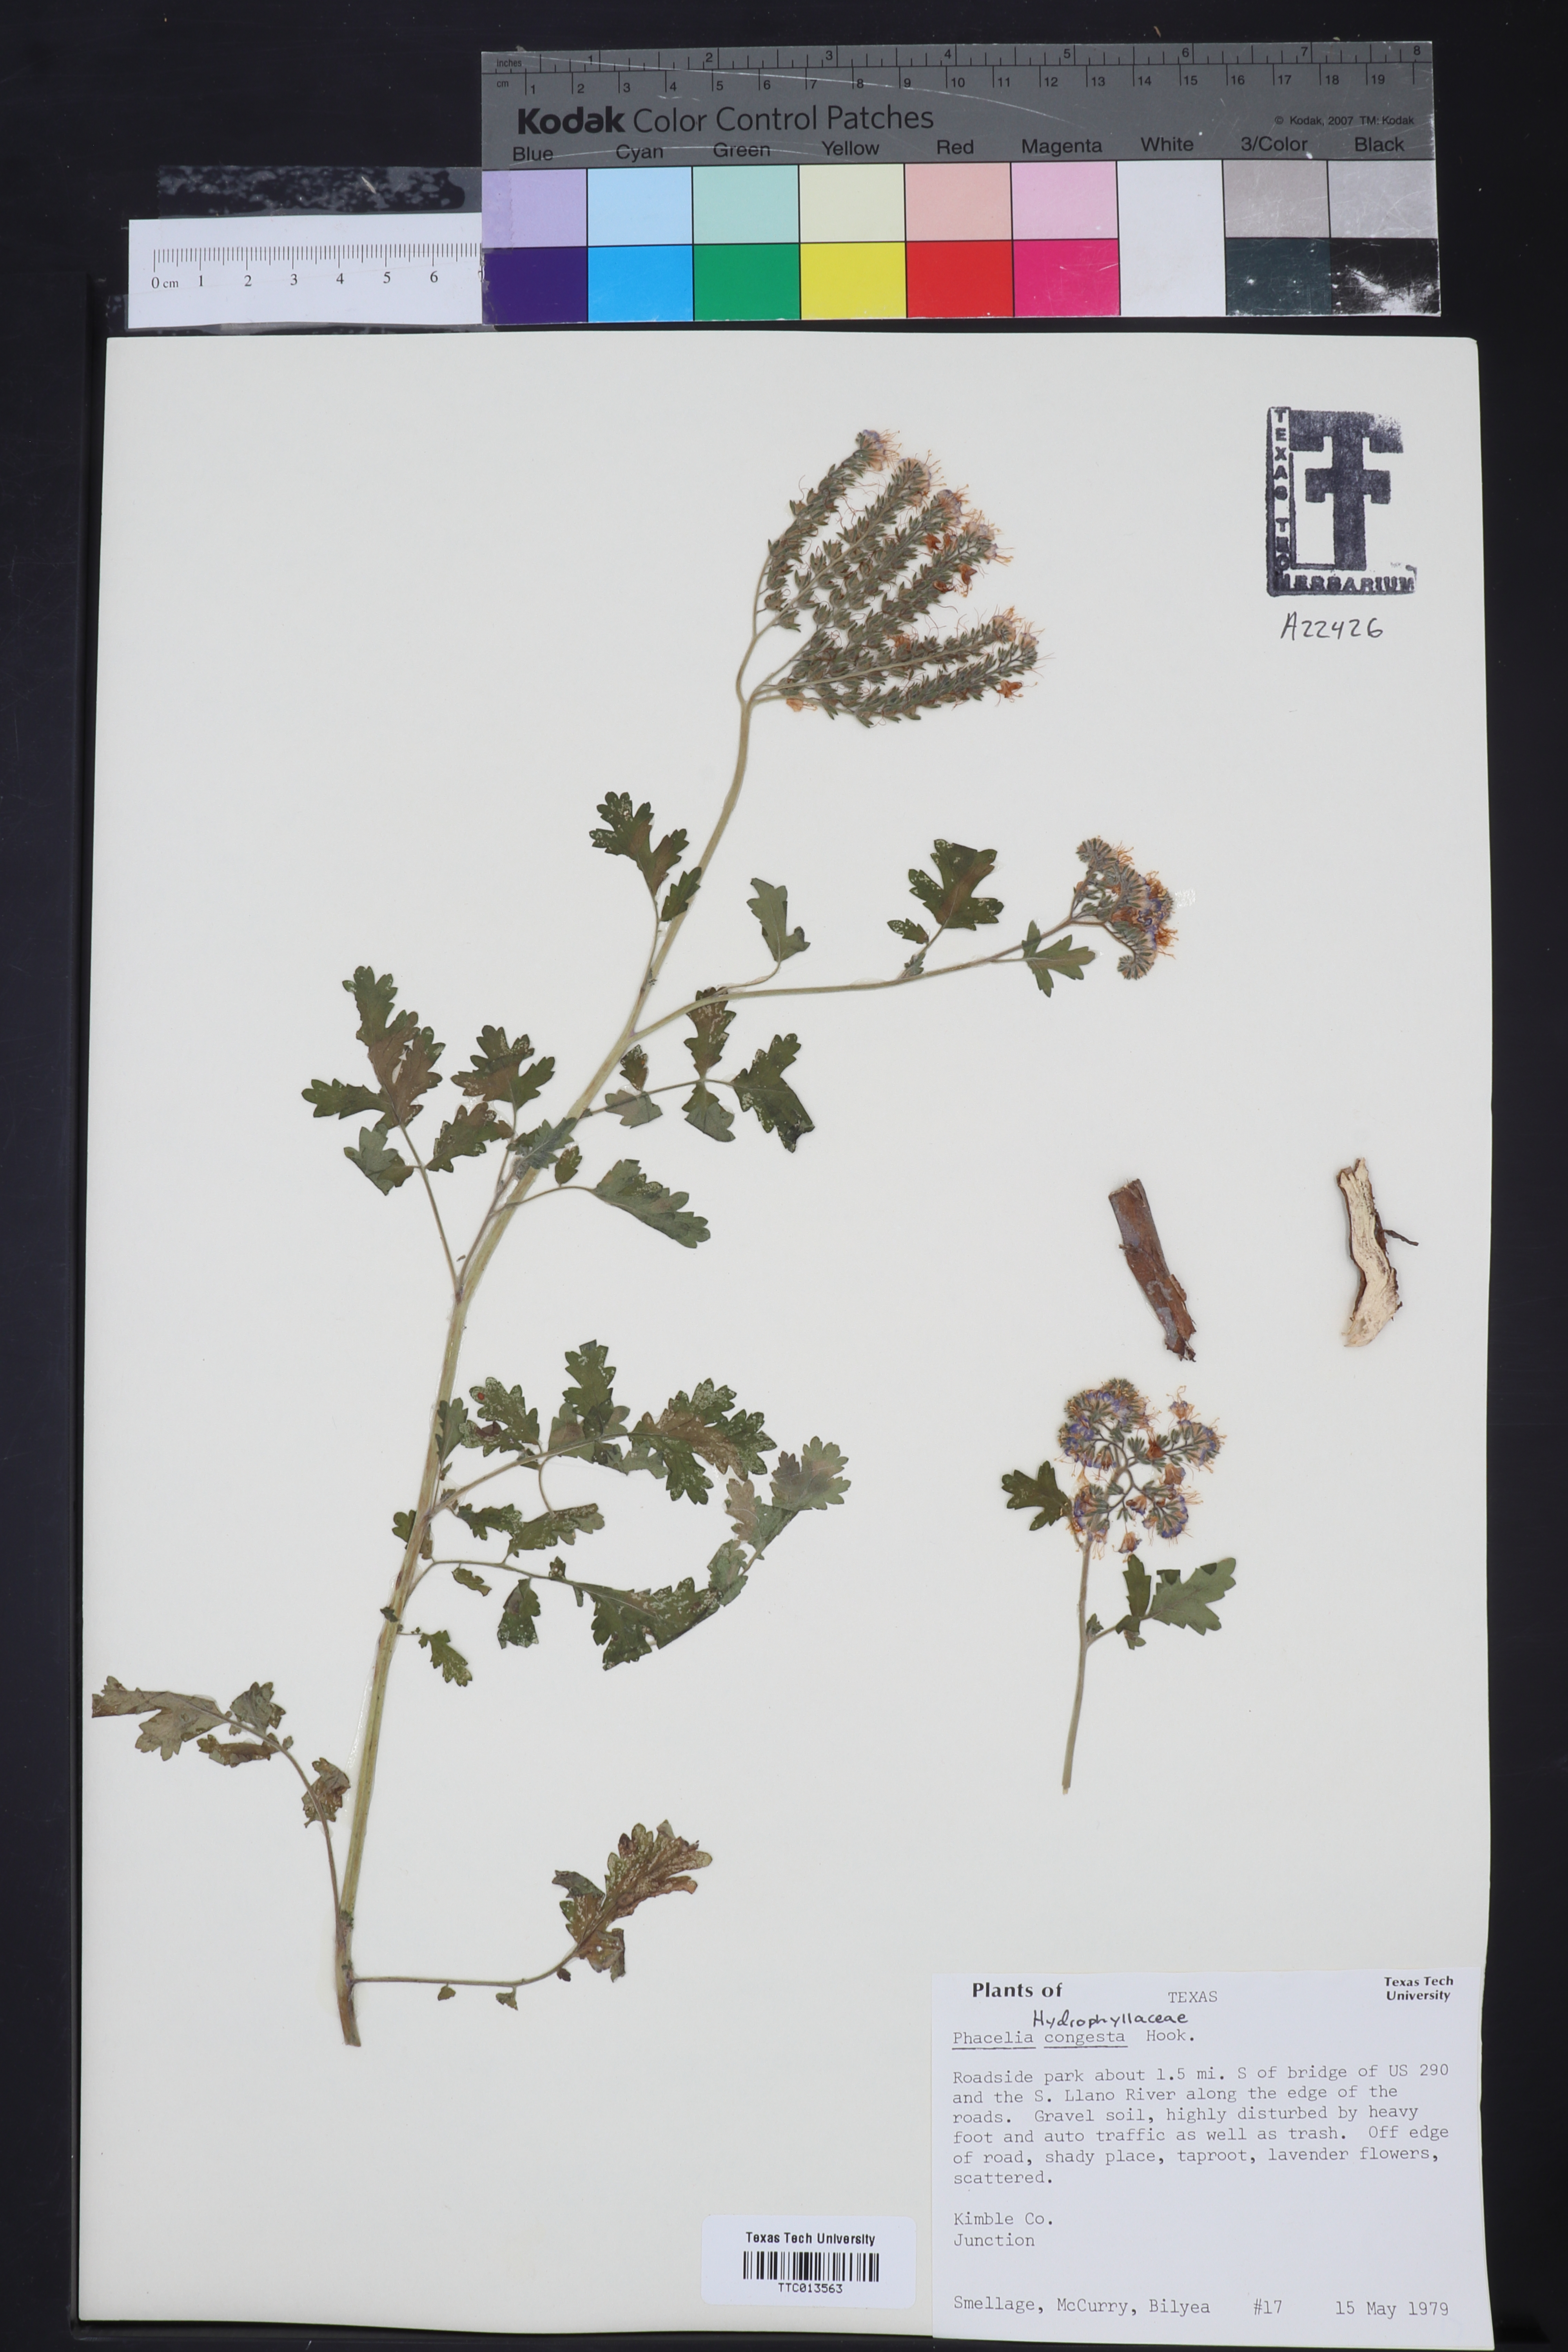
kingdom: Plantae
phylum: Tracheophyta
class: Magnoliopsida
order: Boraginales
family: Hydrophyllaceae
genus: Phacelia
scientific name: Phacelia congesta
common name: Blue curls
